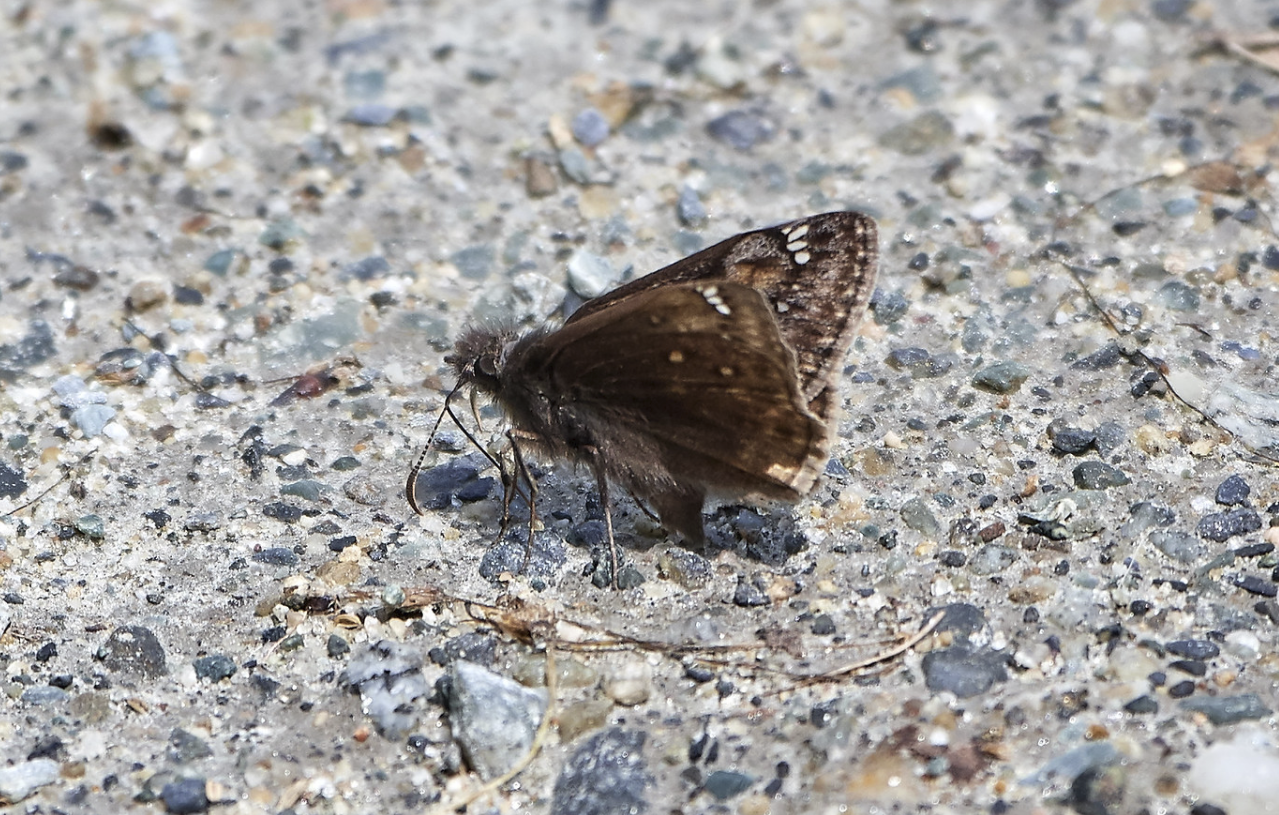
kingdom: Animalia
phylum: Arthropoda
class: Insecta
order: Lepidoptera
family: Hesperiidae
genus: Gesta
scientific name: Gesta
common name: Juvenal's Duskywing
